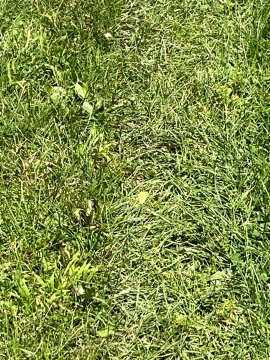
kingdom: Animalia
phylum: Arthropoda
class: Insecta
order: Lepidoptera
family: Pieridae
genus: Colias
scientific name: Colias philodice
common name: Clouded Sulphur
